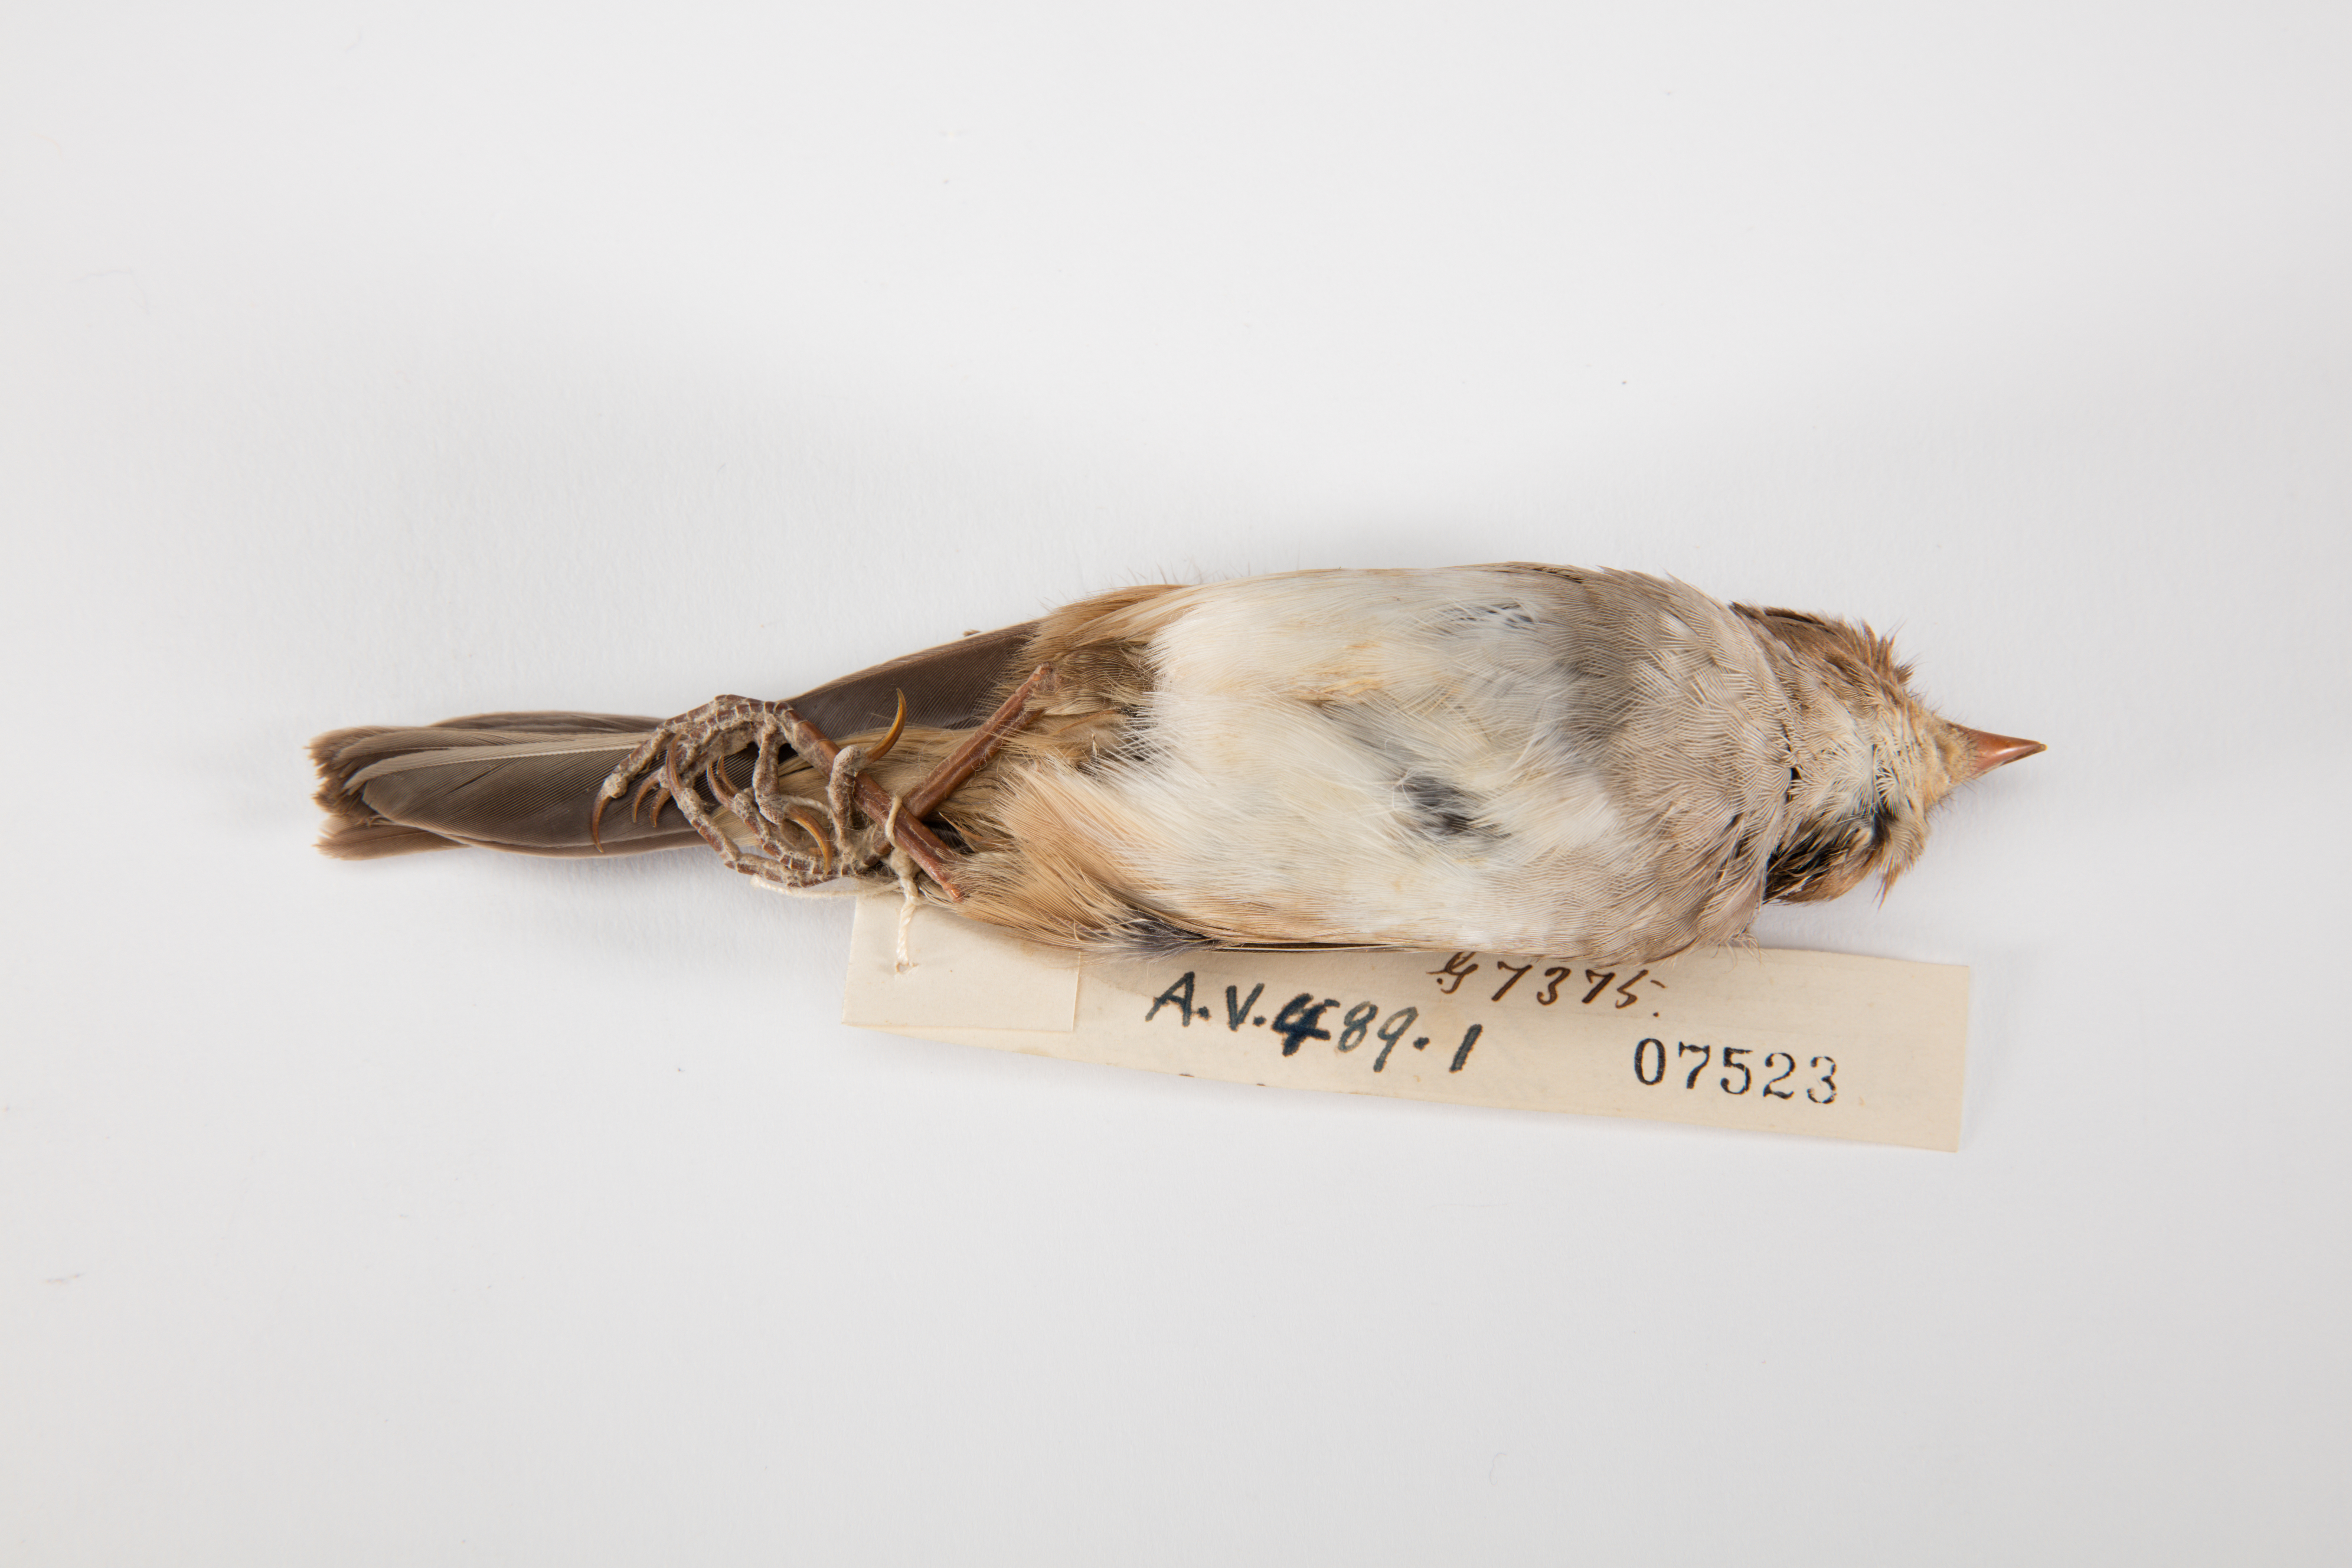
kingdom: Animalia
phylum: Chordata
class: Aves
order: Passeriformes
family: Passerellidae
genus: Zonotrichia
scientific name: Zonotrichia albicollis
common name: White-throated sparrow
